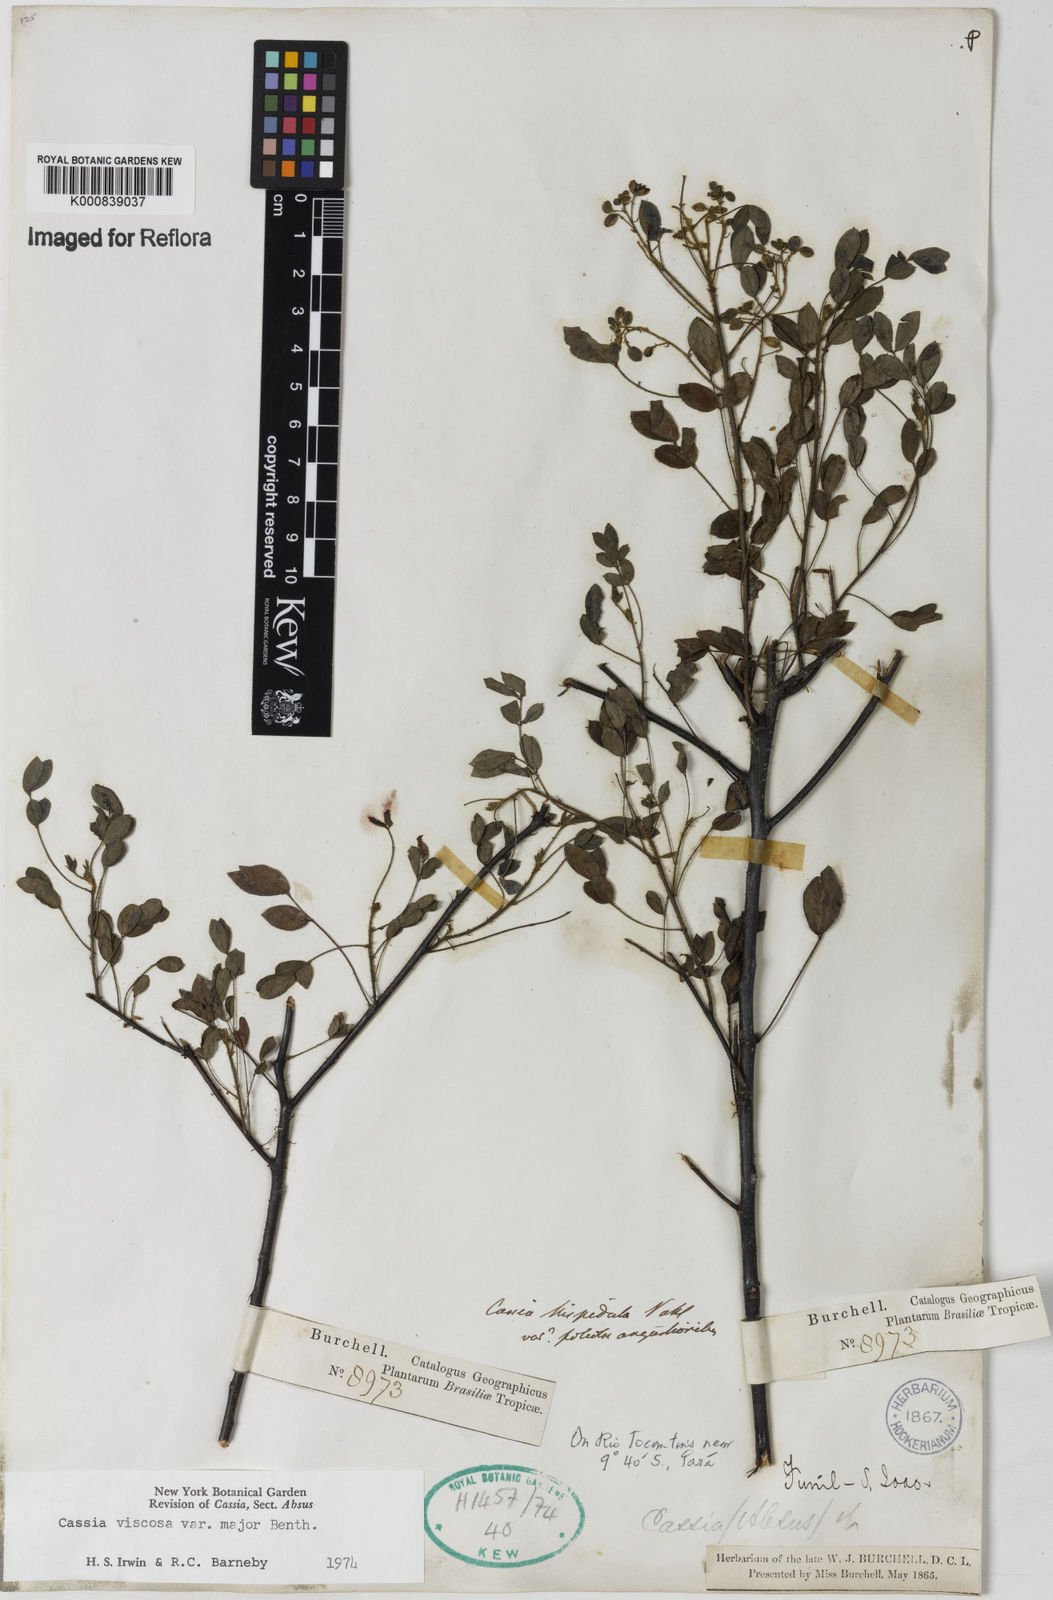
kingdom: Plantae
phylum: Tracheophyta
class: Magnoliopsida
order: Fabales
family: Fabaceae
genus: Chamaecrista
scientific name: Chamaecrista viscosa
